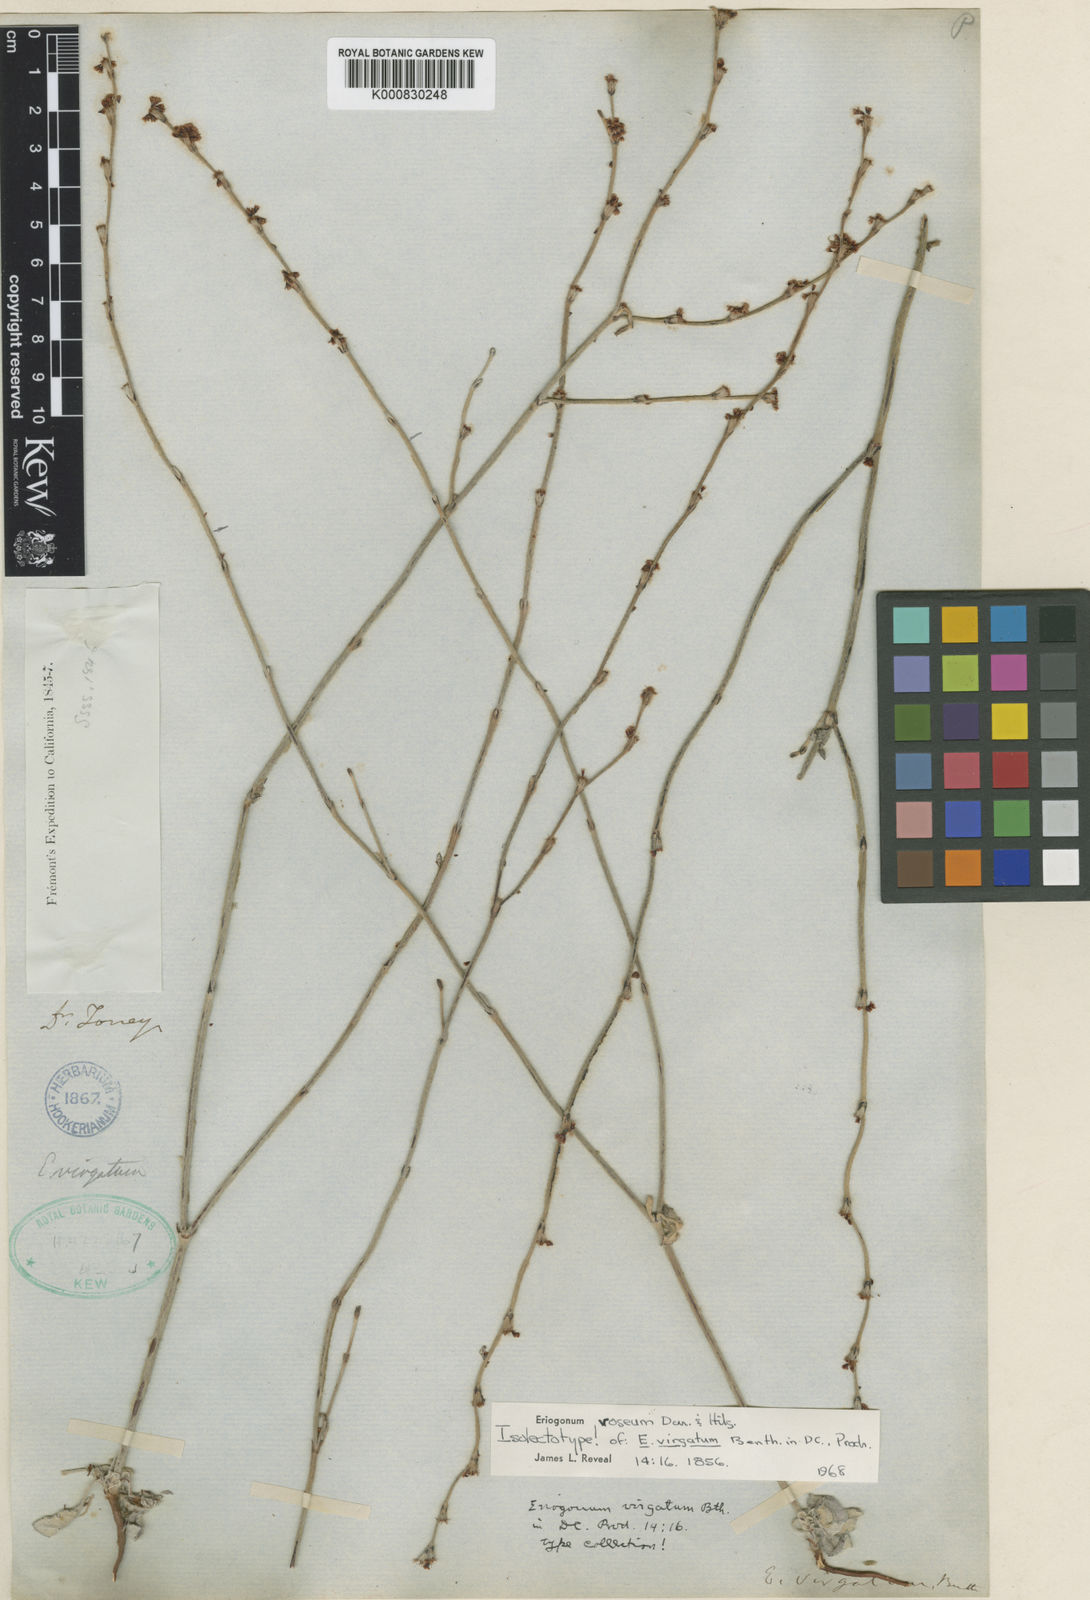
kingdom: Plantae
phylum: Tracheophyta
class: Magnoliopsida
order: Caryophyllales
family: Polygonaceae
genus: Eriogonum
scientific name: Eriogonum roseum
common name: Wand wild buckwheat
